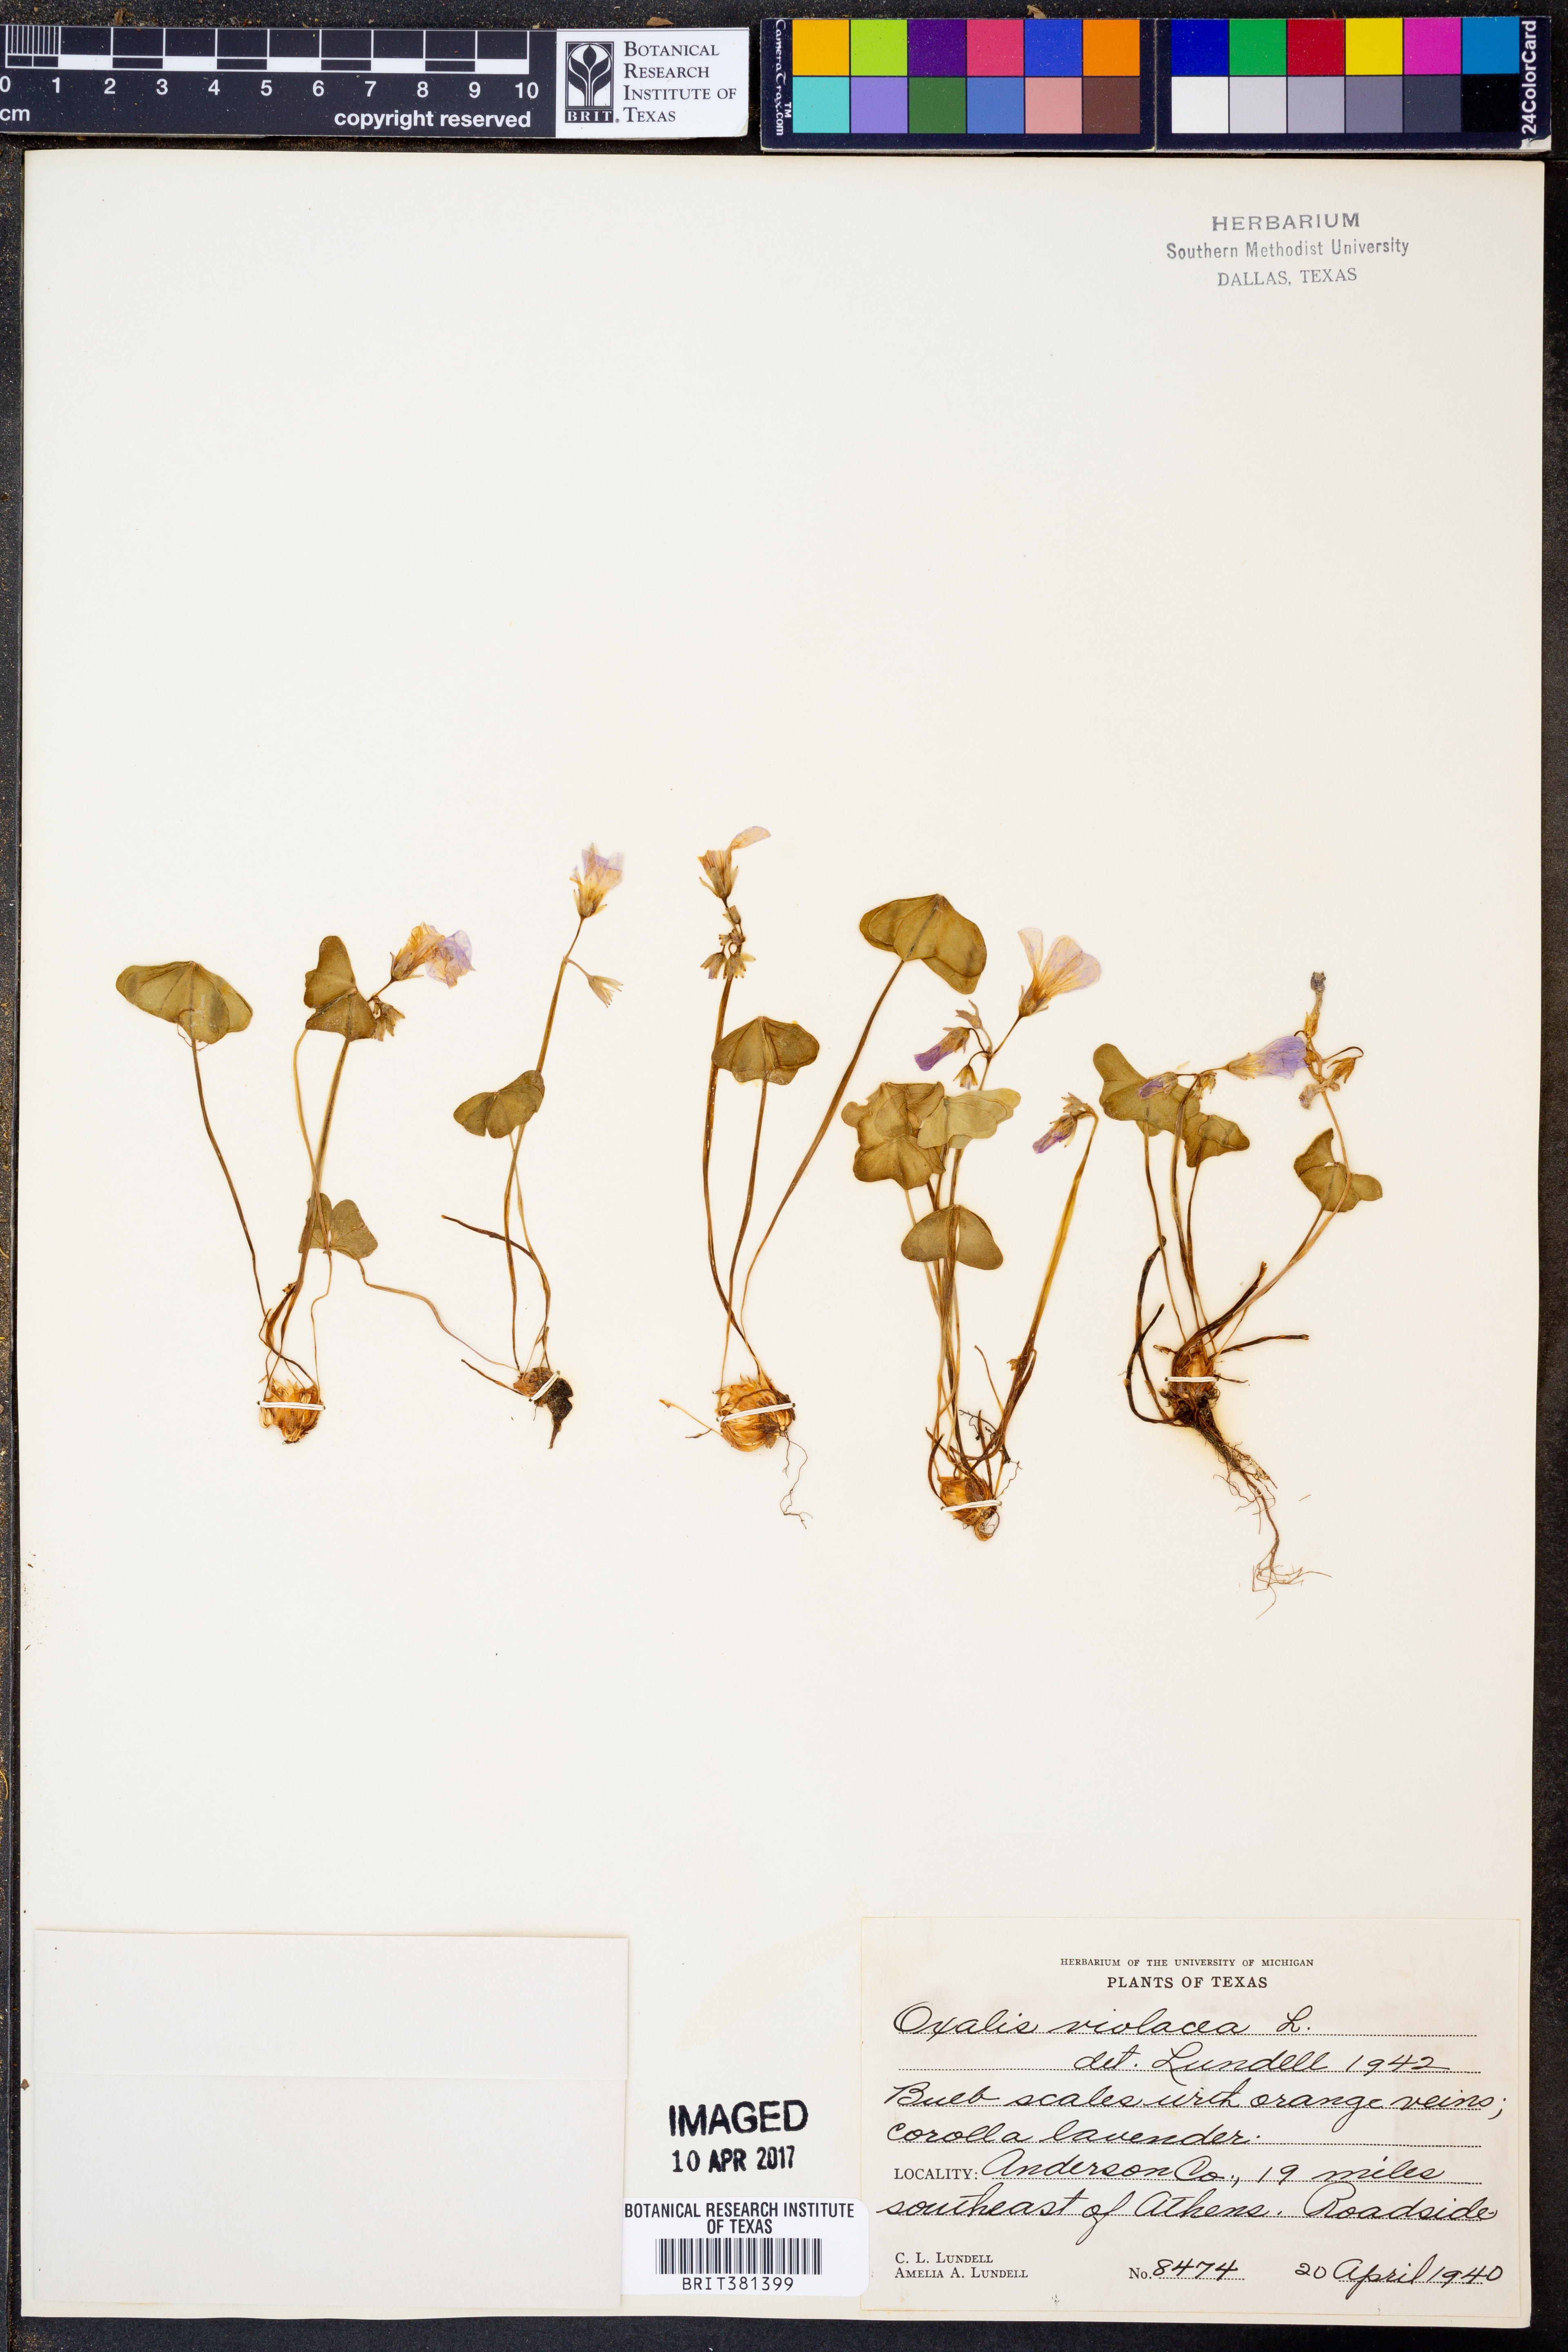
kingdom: Plantae
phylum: Tracheophyta
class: Magnoliopsida
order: Oxalidales
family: Oxalidaceae
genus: Oxalis
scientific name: Oxalis violacea
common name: Violet wood-sorrel
